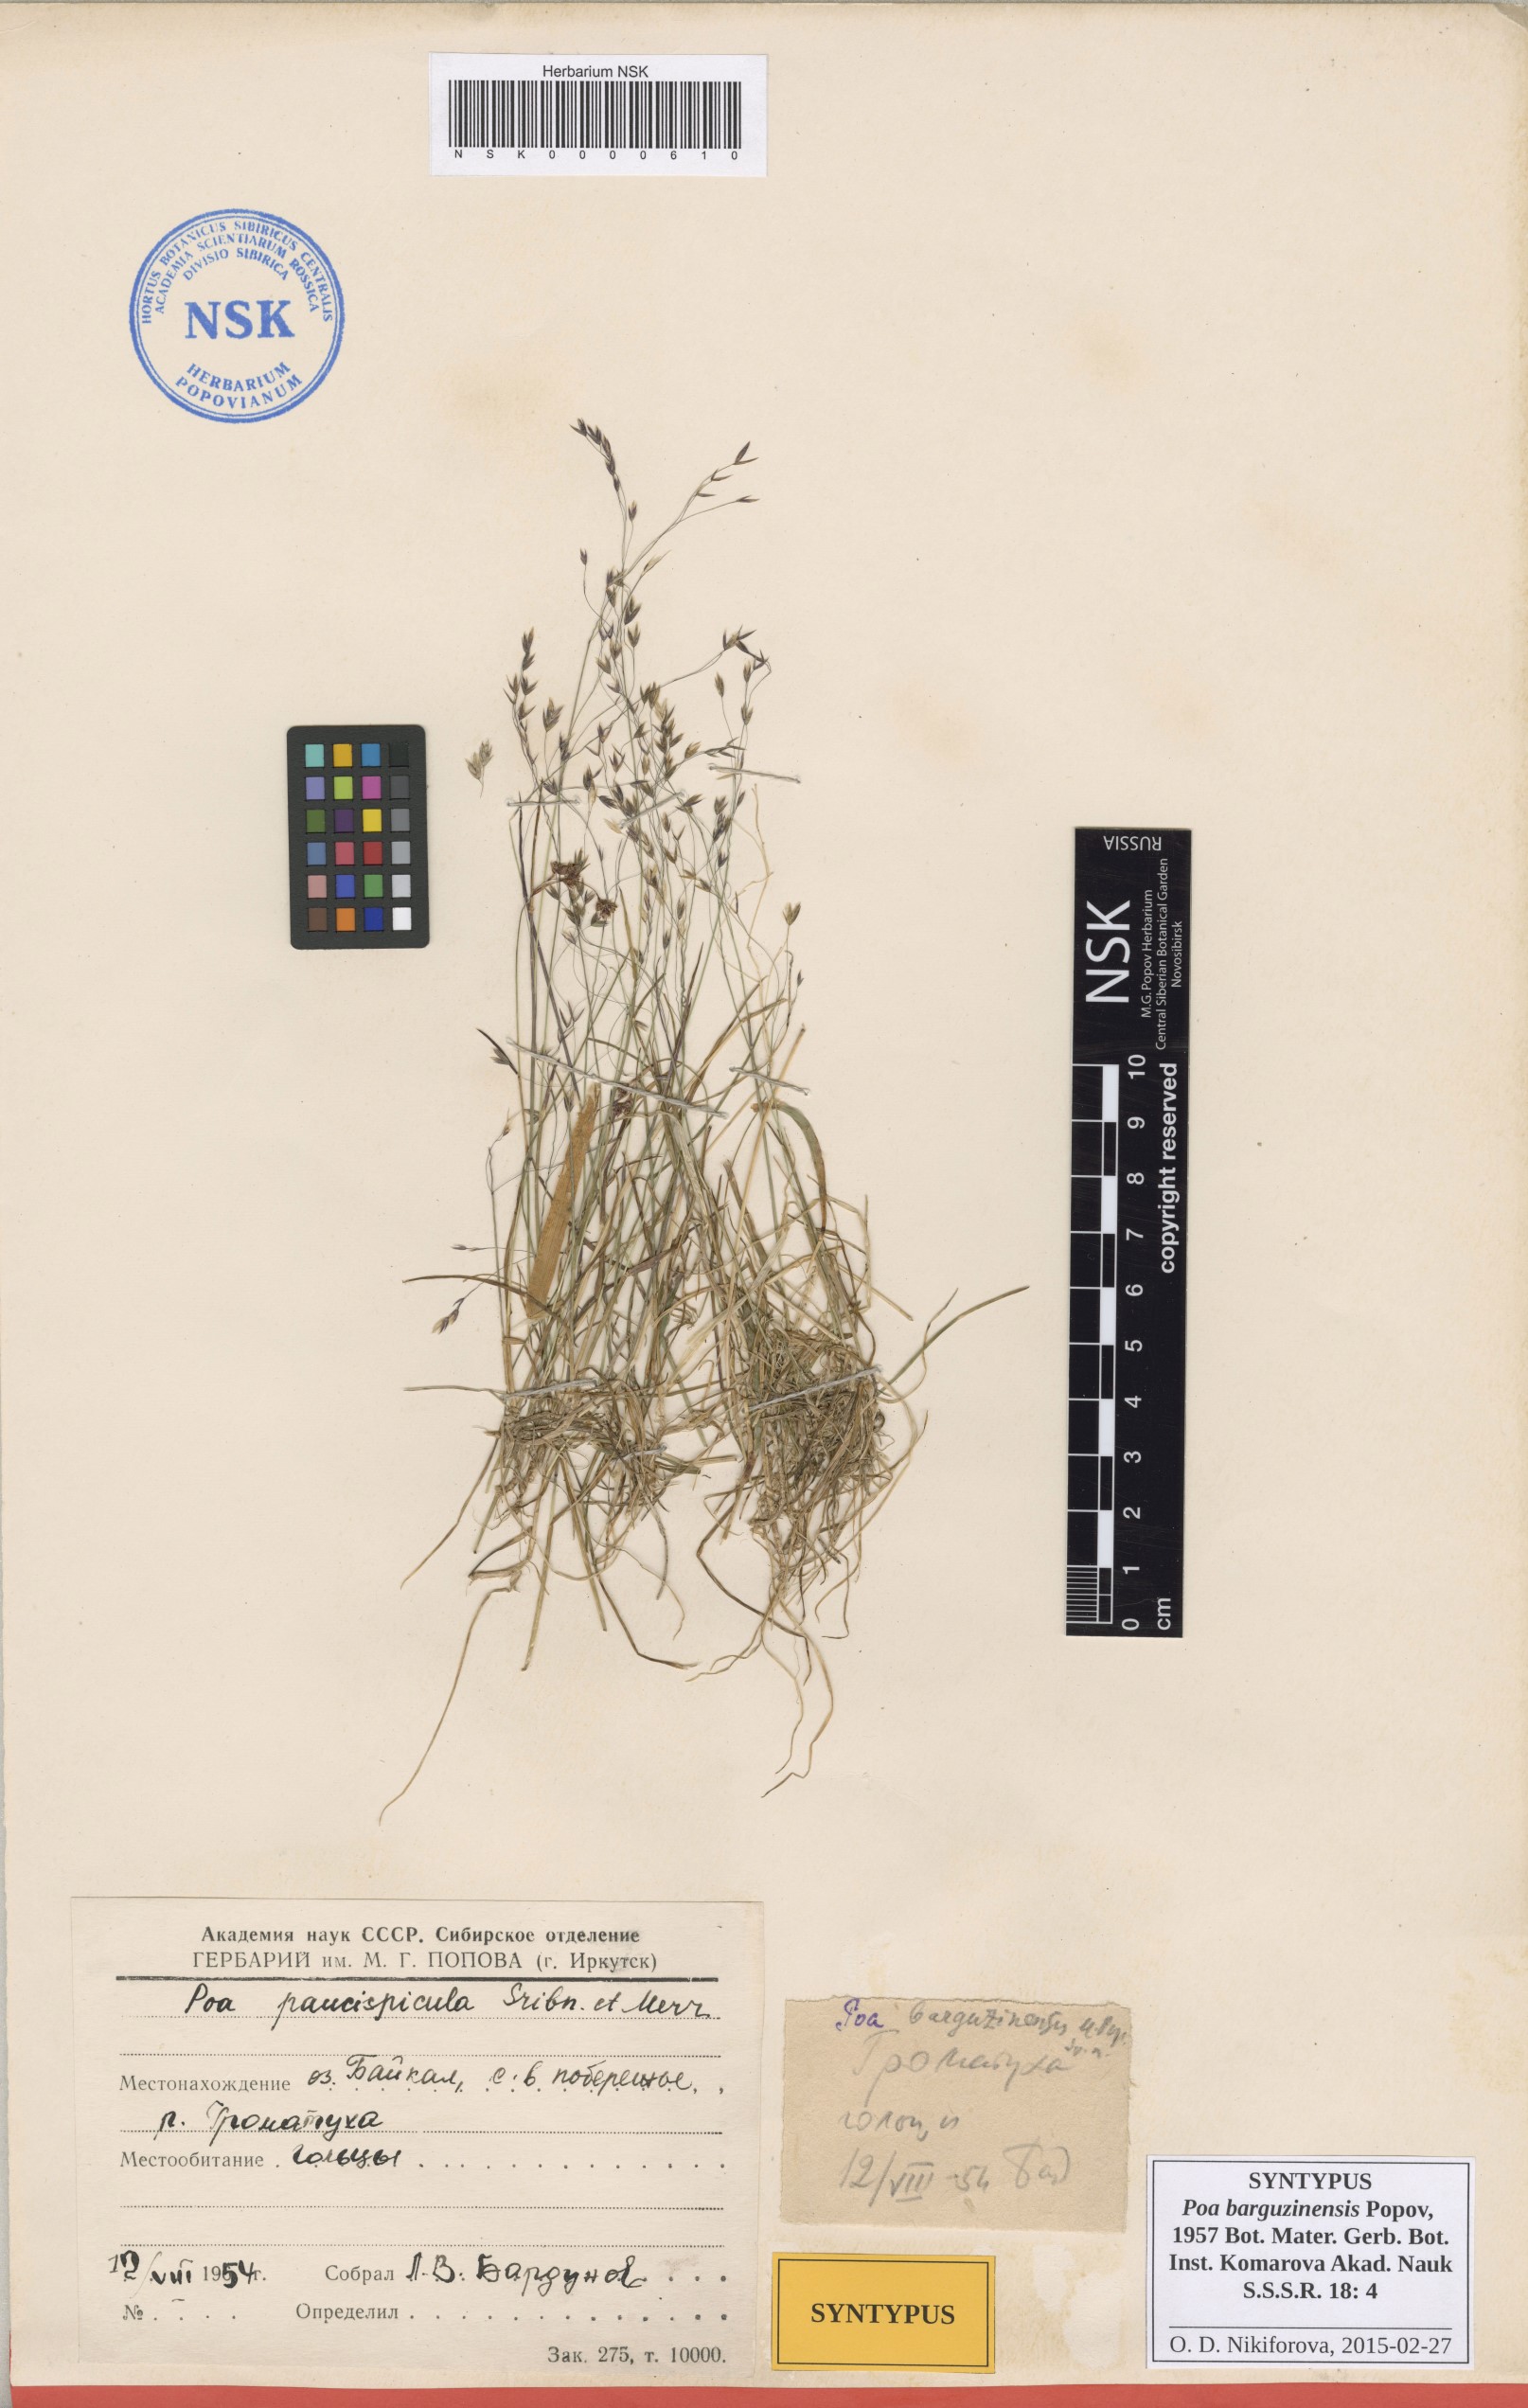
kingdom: Plantae
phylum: Tracheophyta
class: Liliopsida
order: Poales
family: Poaceae
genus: Poa
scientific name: Poa leptocoma
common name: Bog bluegrass
